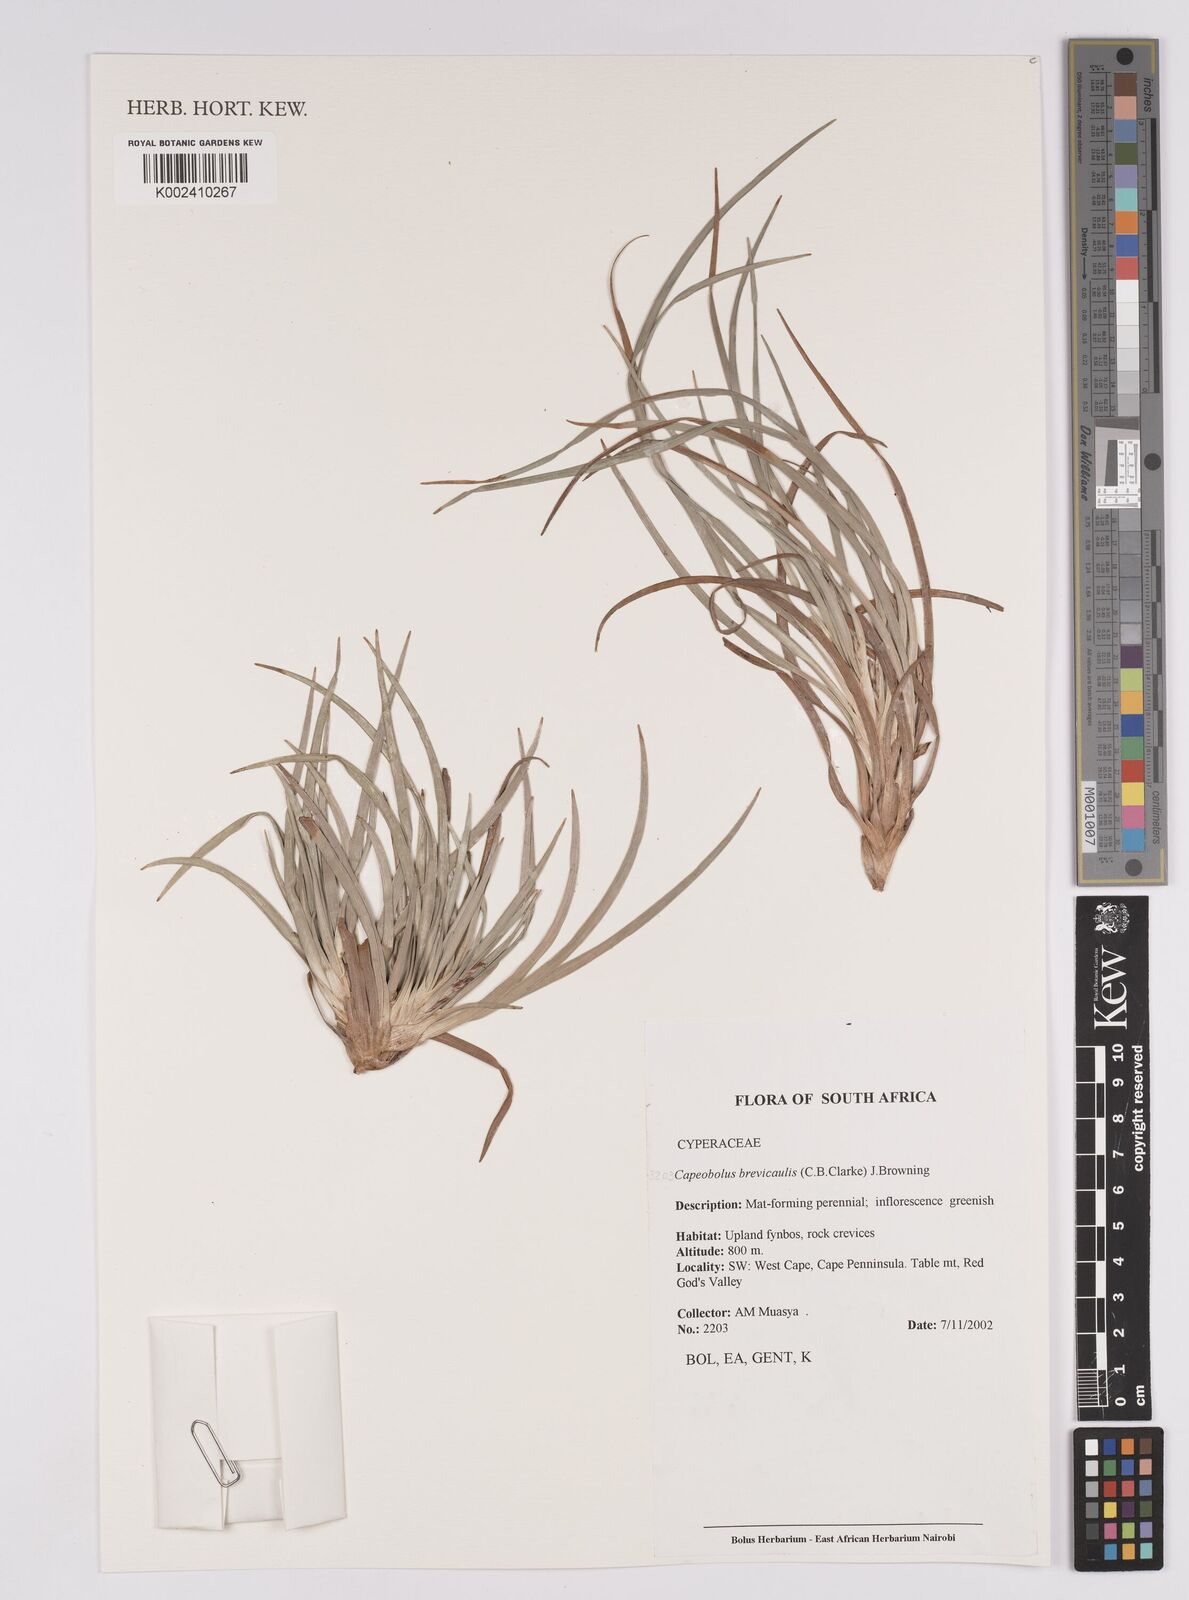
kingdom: Plantae
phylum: Tracheophyta
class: Liliopsida
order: Poales
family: Cyperaceae
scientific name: Cyperaceae
